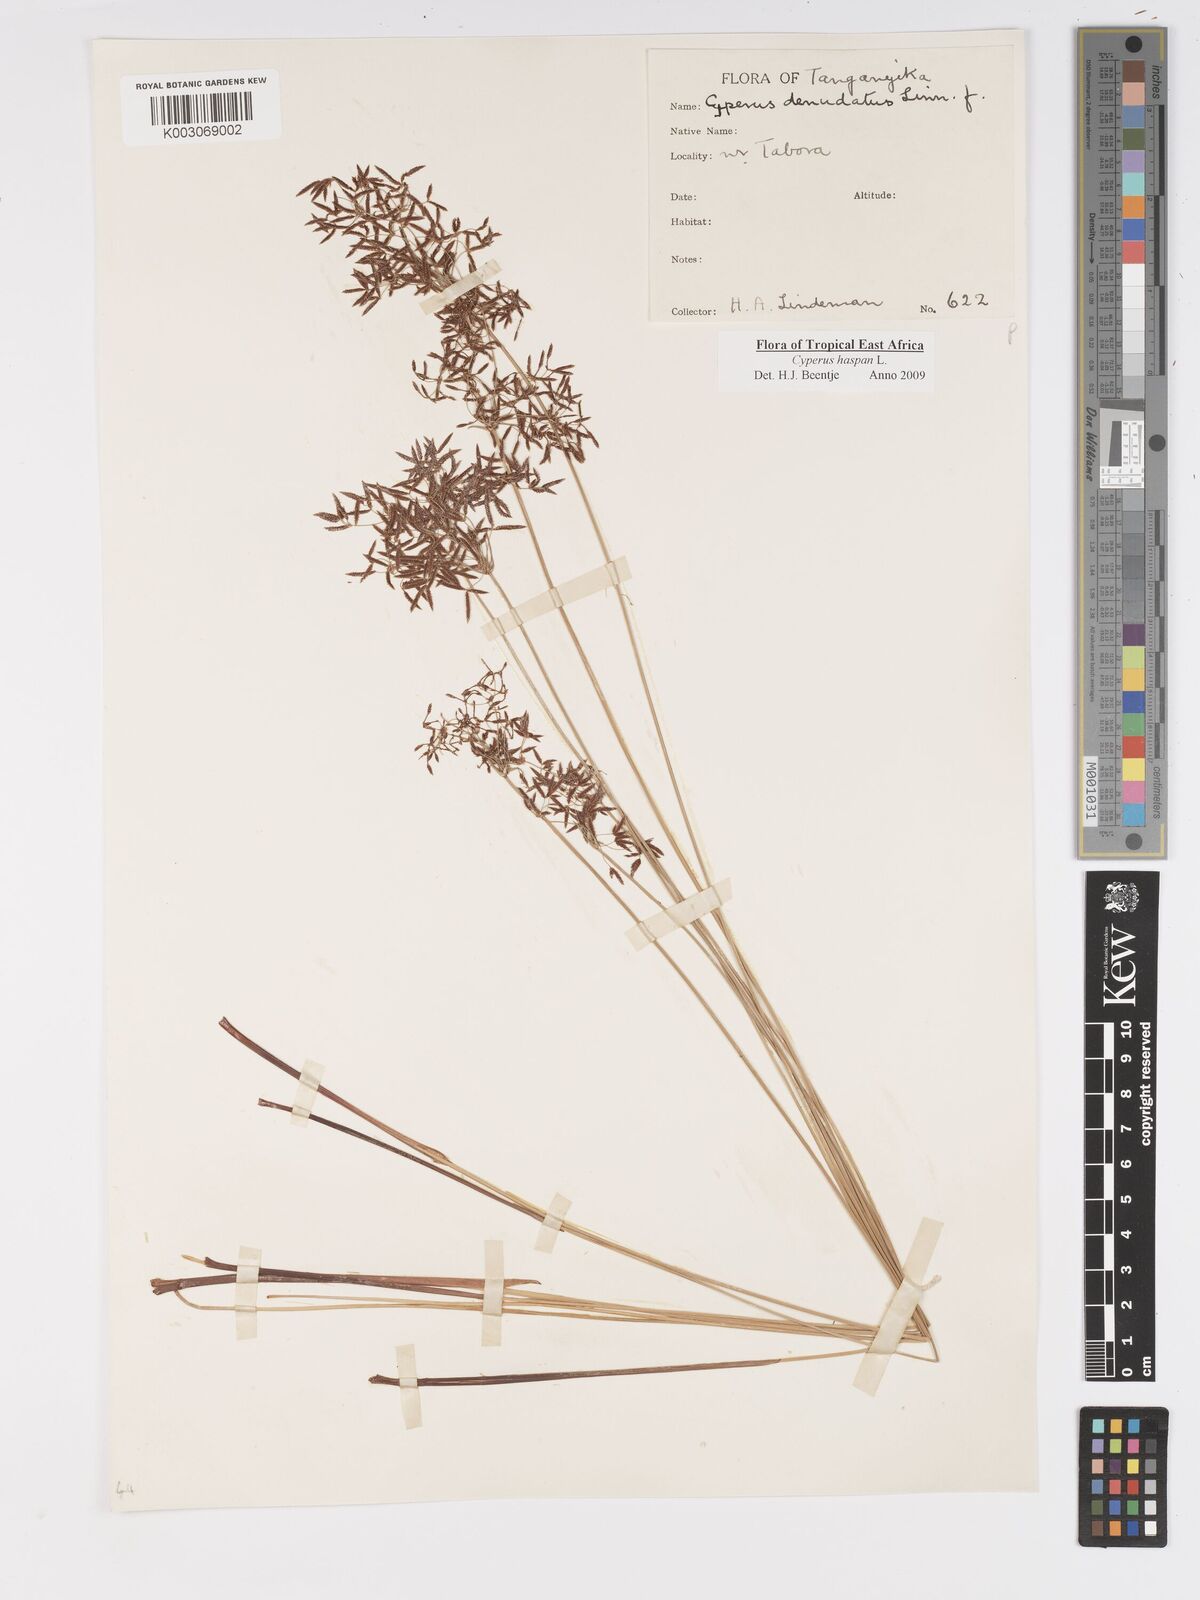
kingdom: Plantae
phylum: Tracheophyta
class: Liliopsida
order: Poales
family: Cyperaceae
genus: Cyperus
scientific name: Cyperus platycaulis
